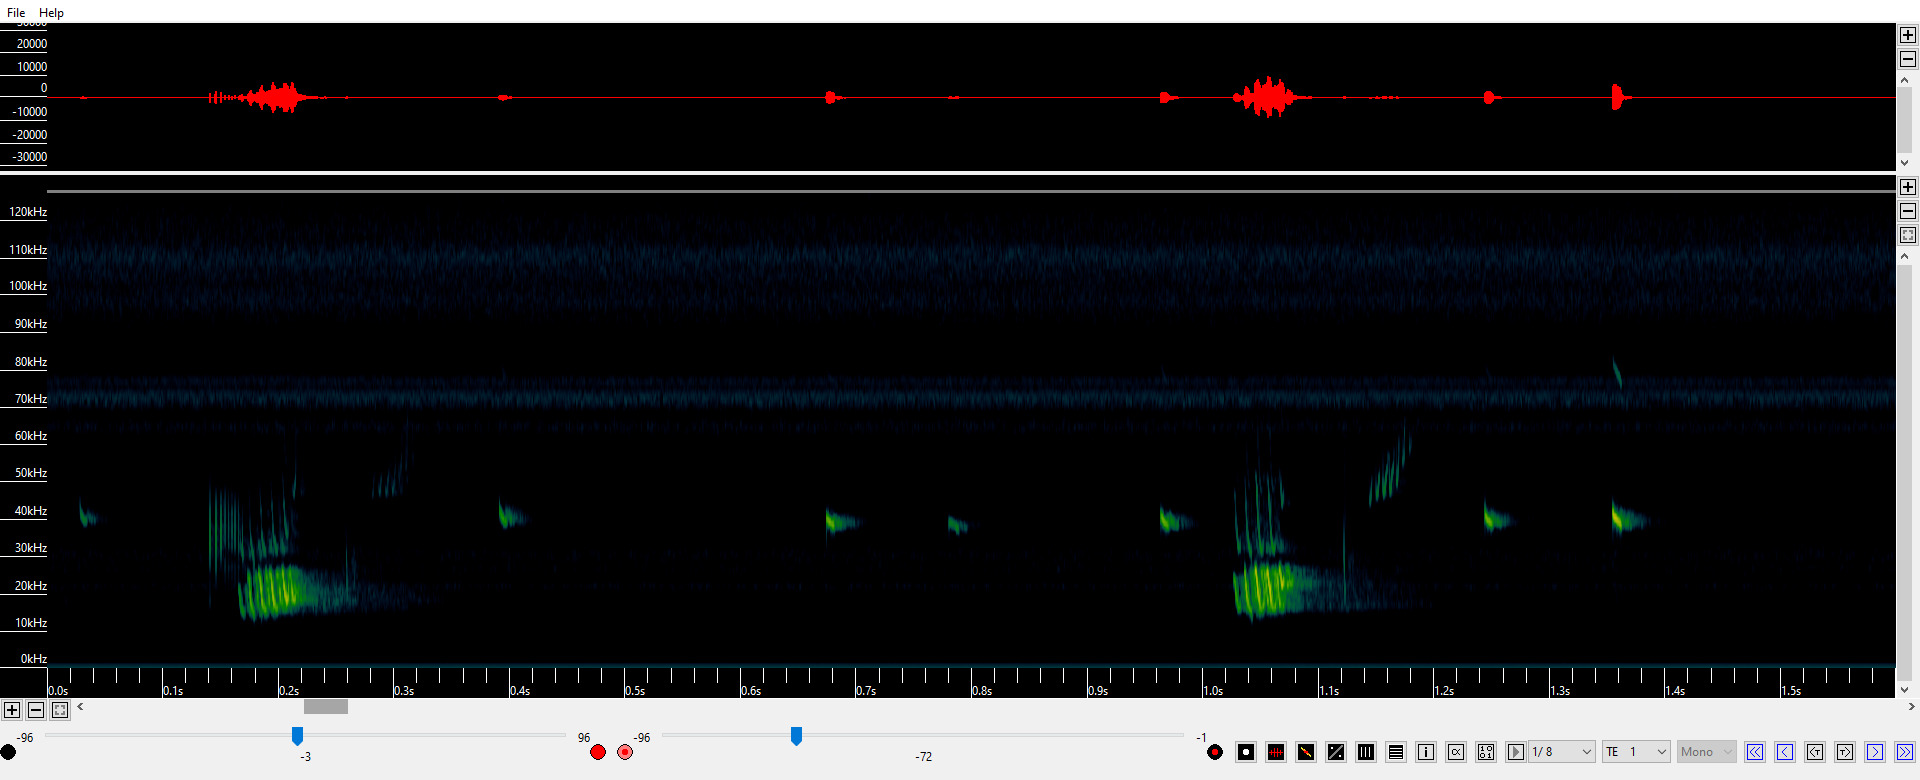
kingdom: Animalia
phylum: Chordata
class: Mammalia
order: Chiroptera
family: Vespertilionidae
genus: Pipistrellus
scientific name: Pipistrellus nathusii
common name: Troldflagermus
